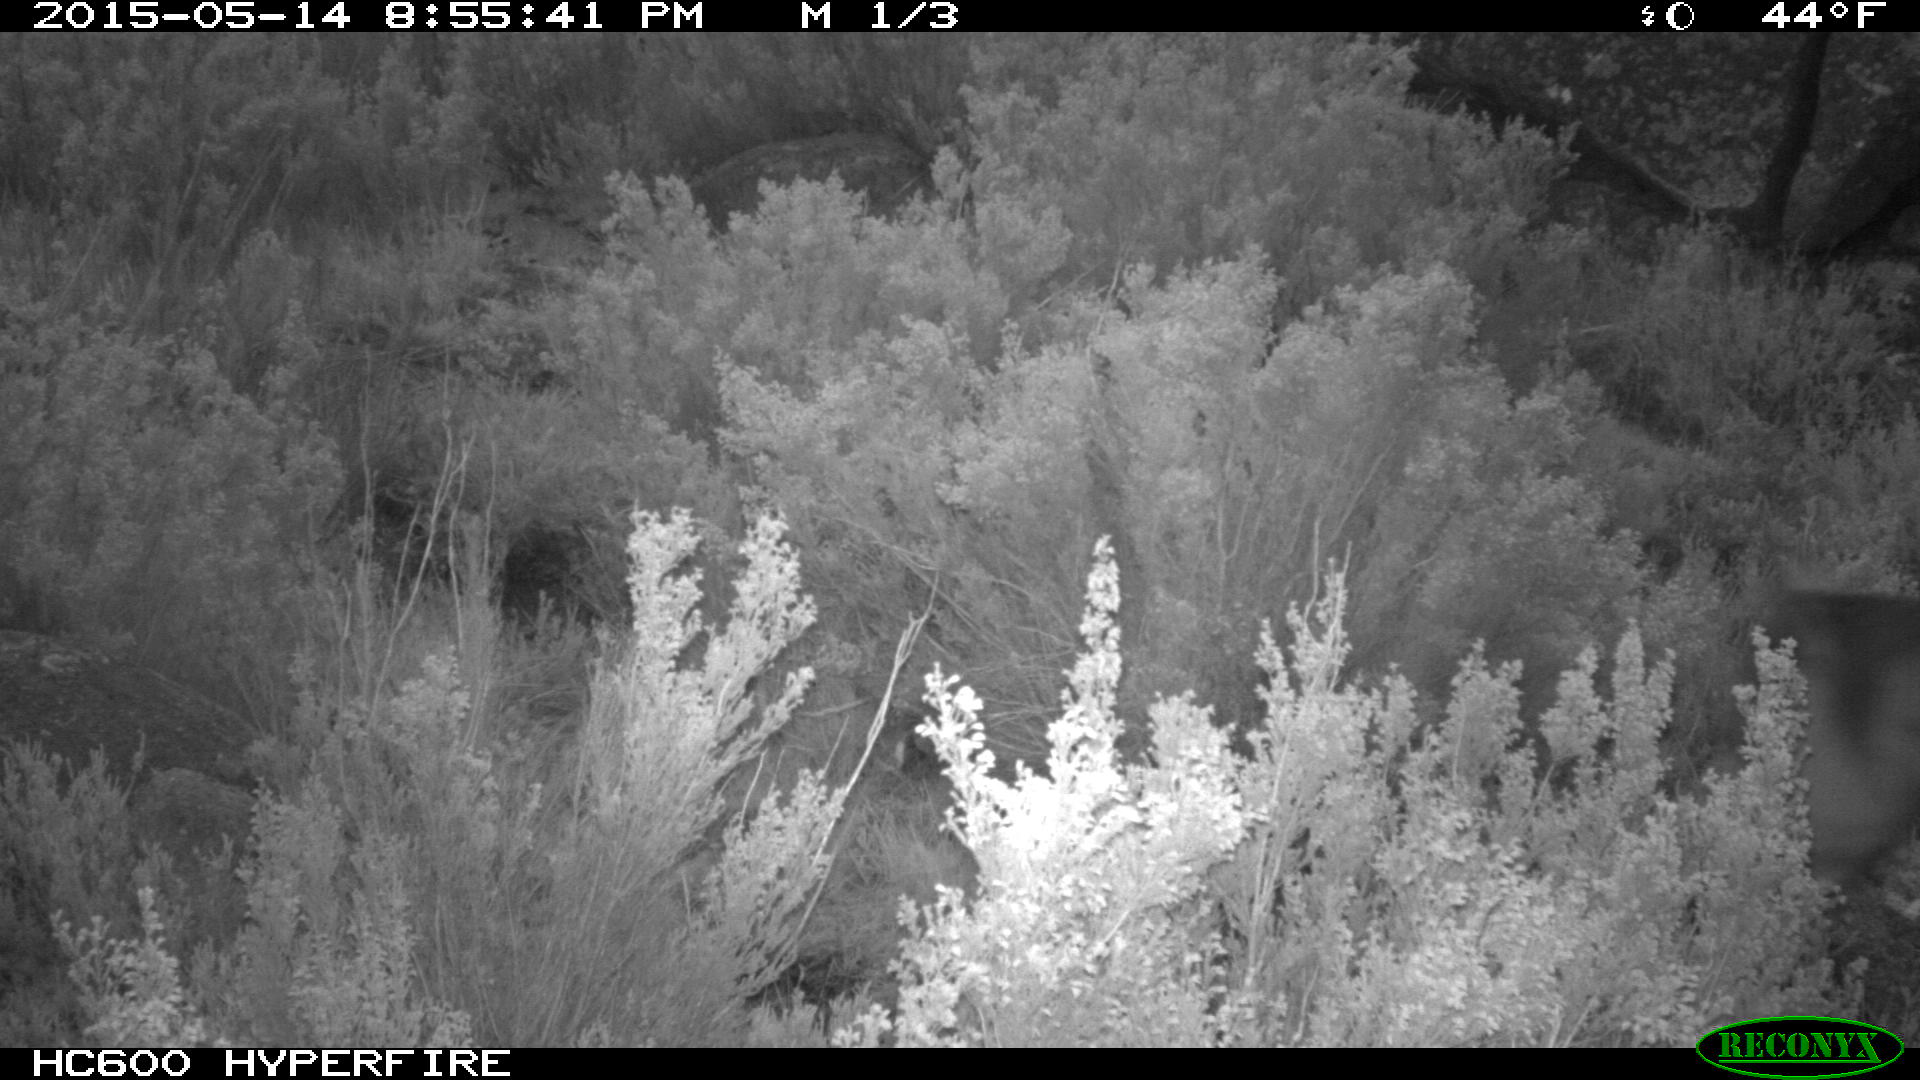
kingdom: Animalia
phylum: Chordata
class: Mammalia
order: Perissodactyla
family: Equidae
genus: Equus
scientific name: Equus caballus
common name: Horse
